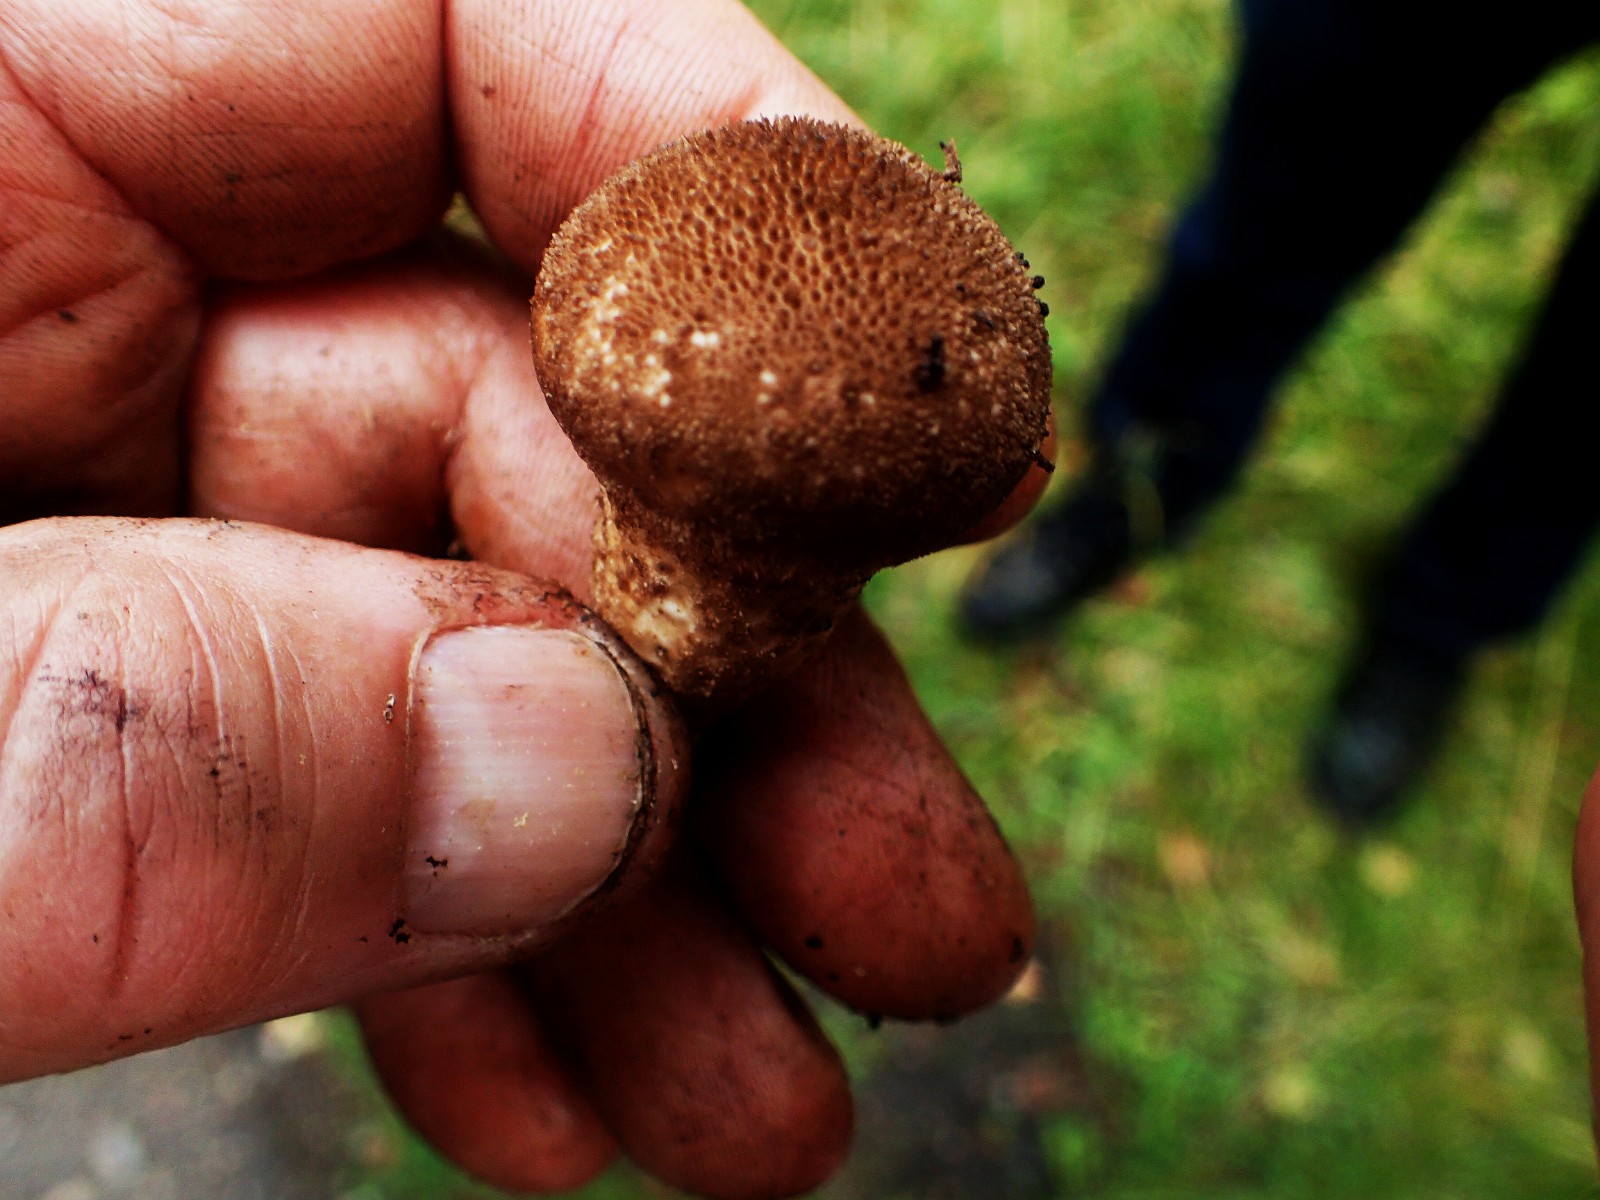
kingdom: Fungi
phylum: Basidiomycota
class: Agaricomycetes
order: Agaricales
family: Lycoperdaceae
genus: Lycoperdon
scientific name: Lycoperdon nigrescens
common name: sortagtig støvbold
